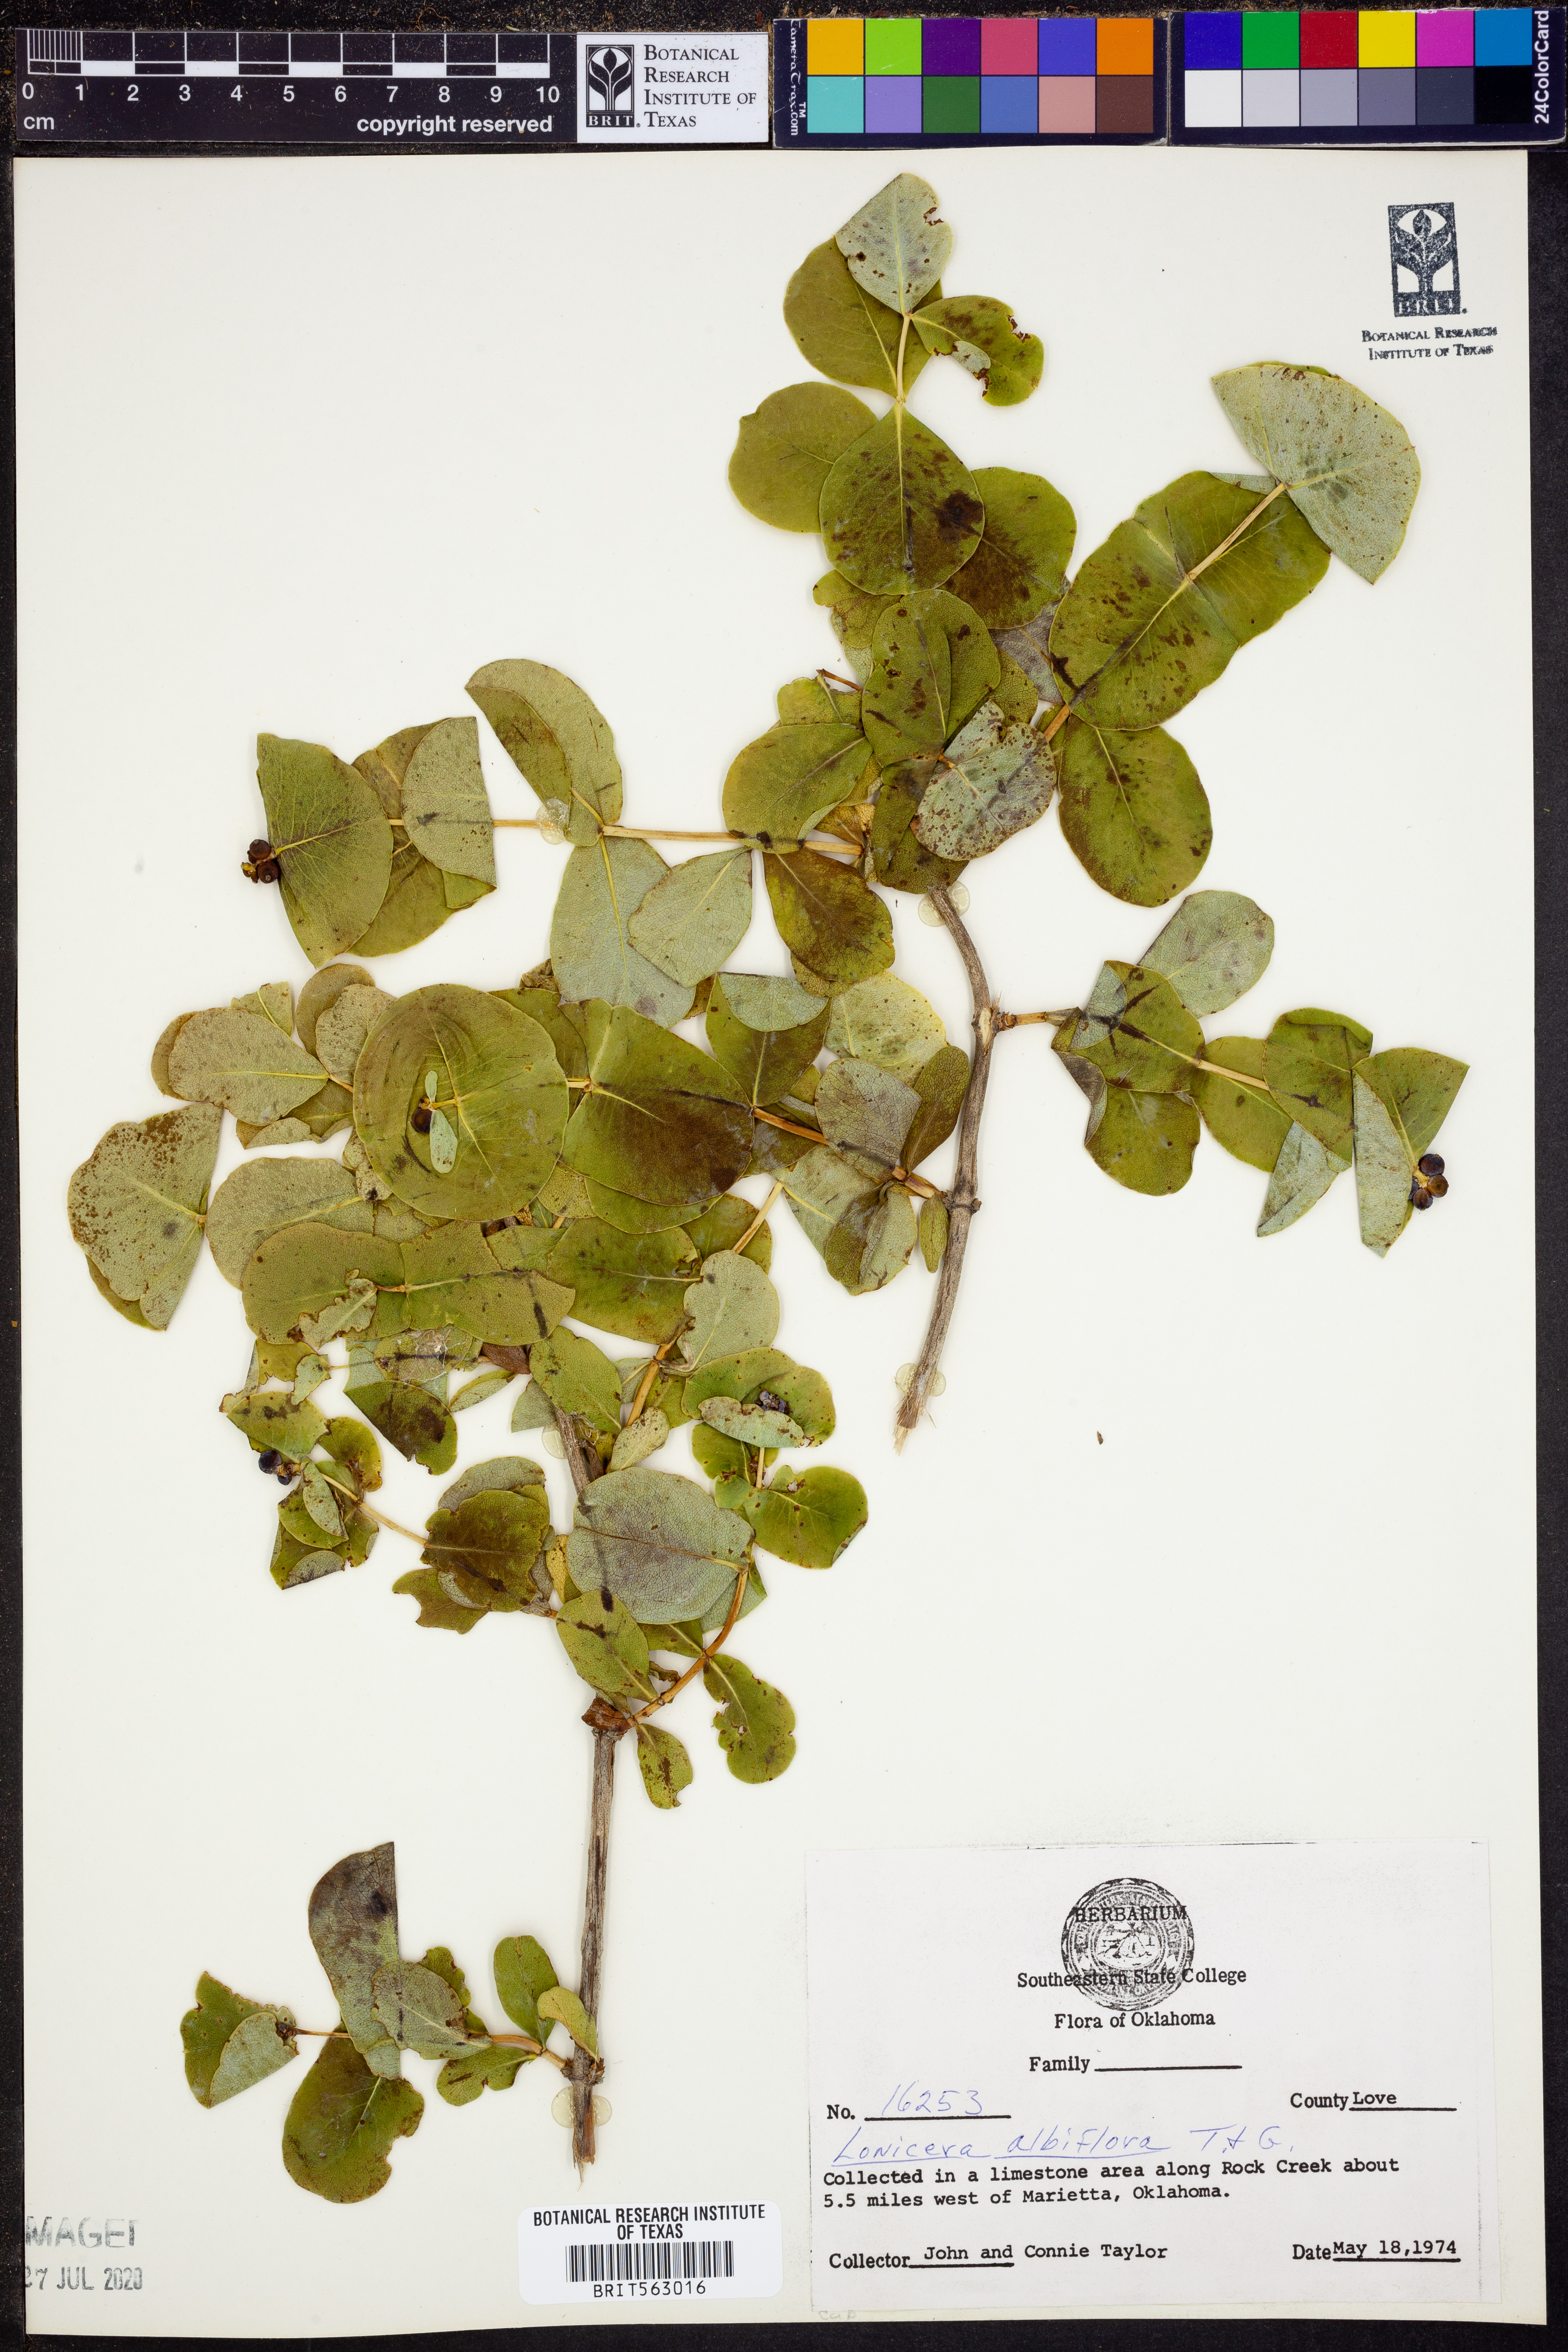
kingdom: Plantae
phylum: Tracheophyta
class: Magnoliopsida
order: Dipsacales
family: Caprifoliaceae
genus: Lonicera
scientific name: Lonicera albiflora
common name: White honeysuckle
